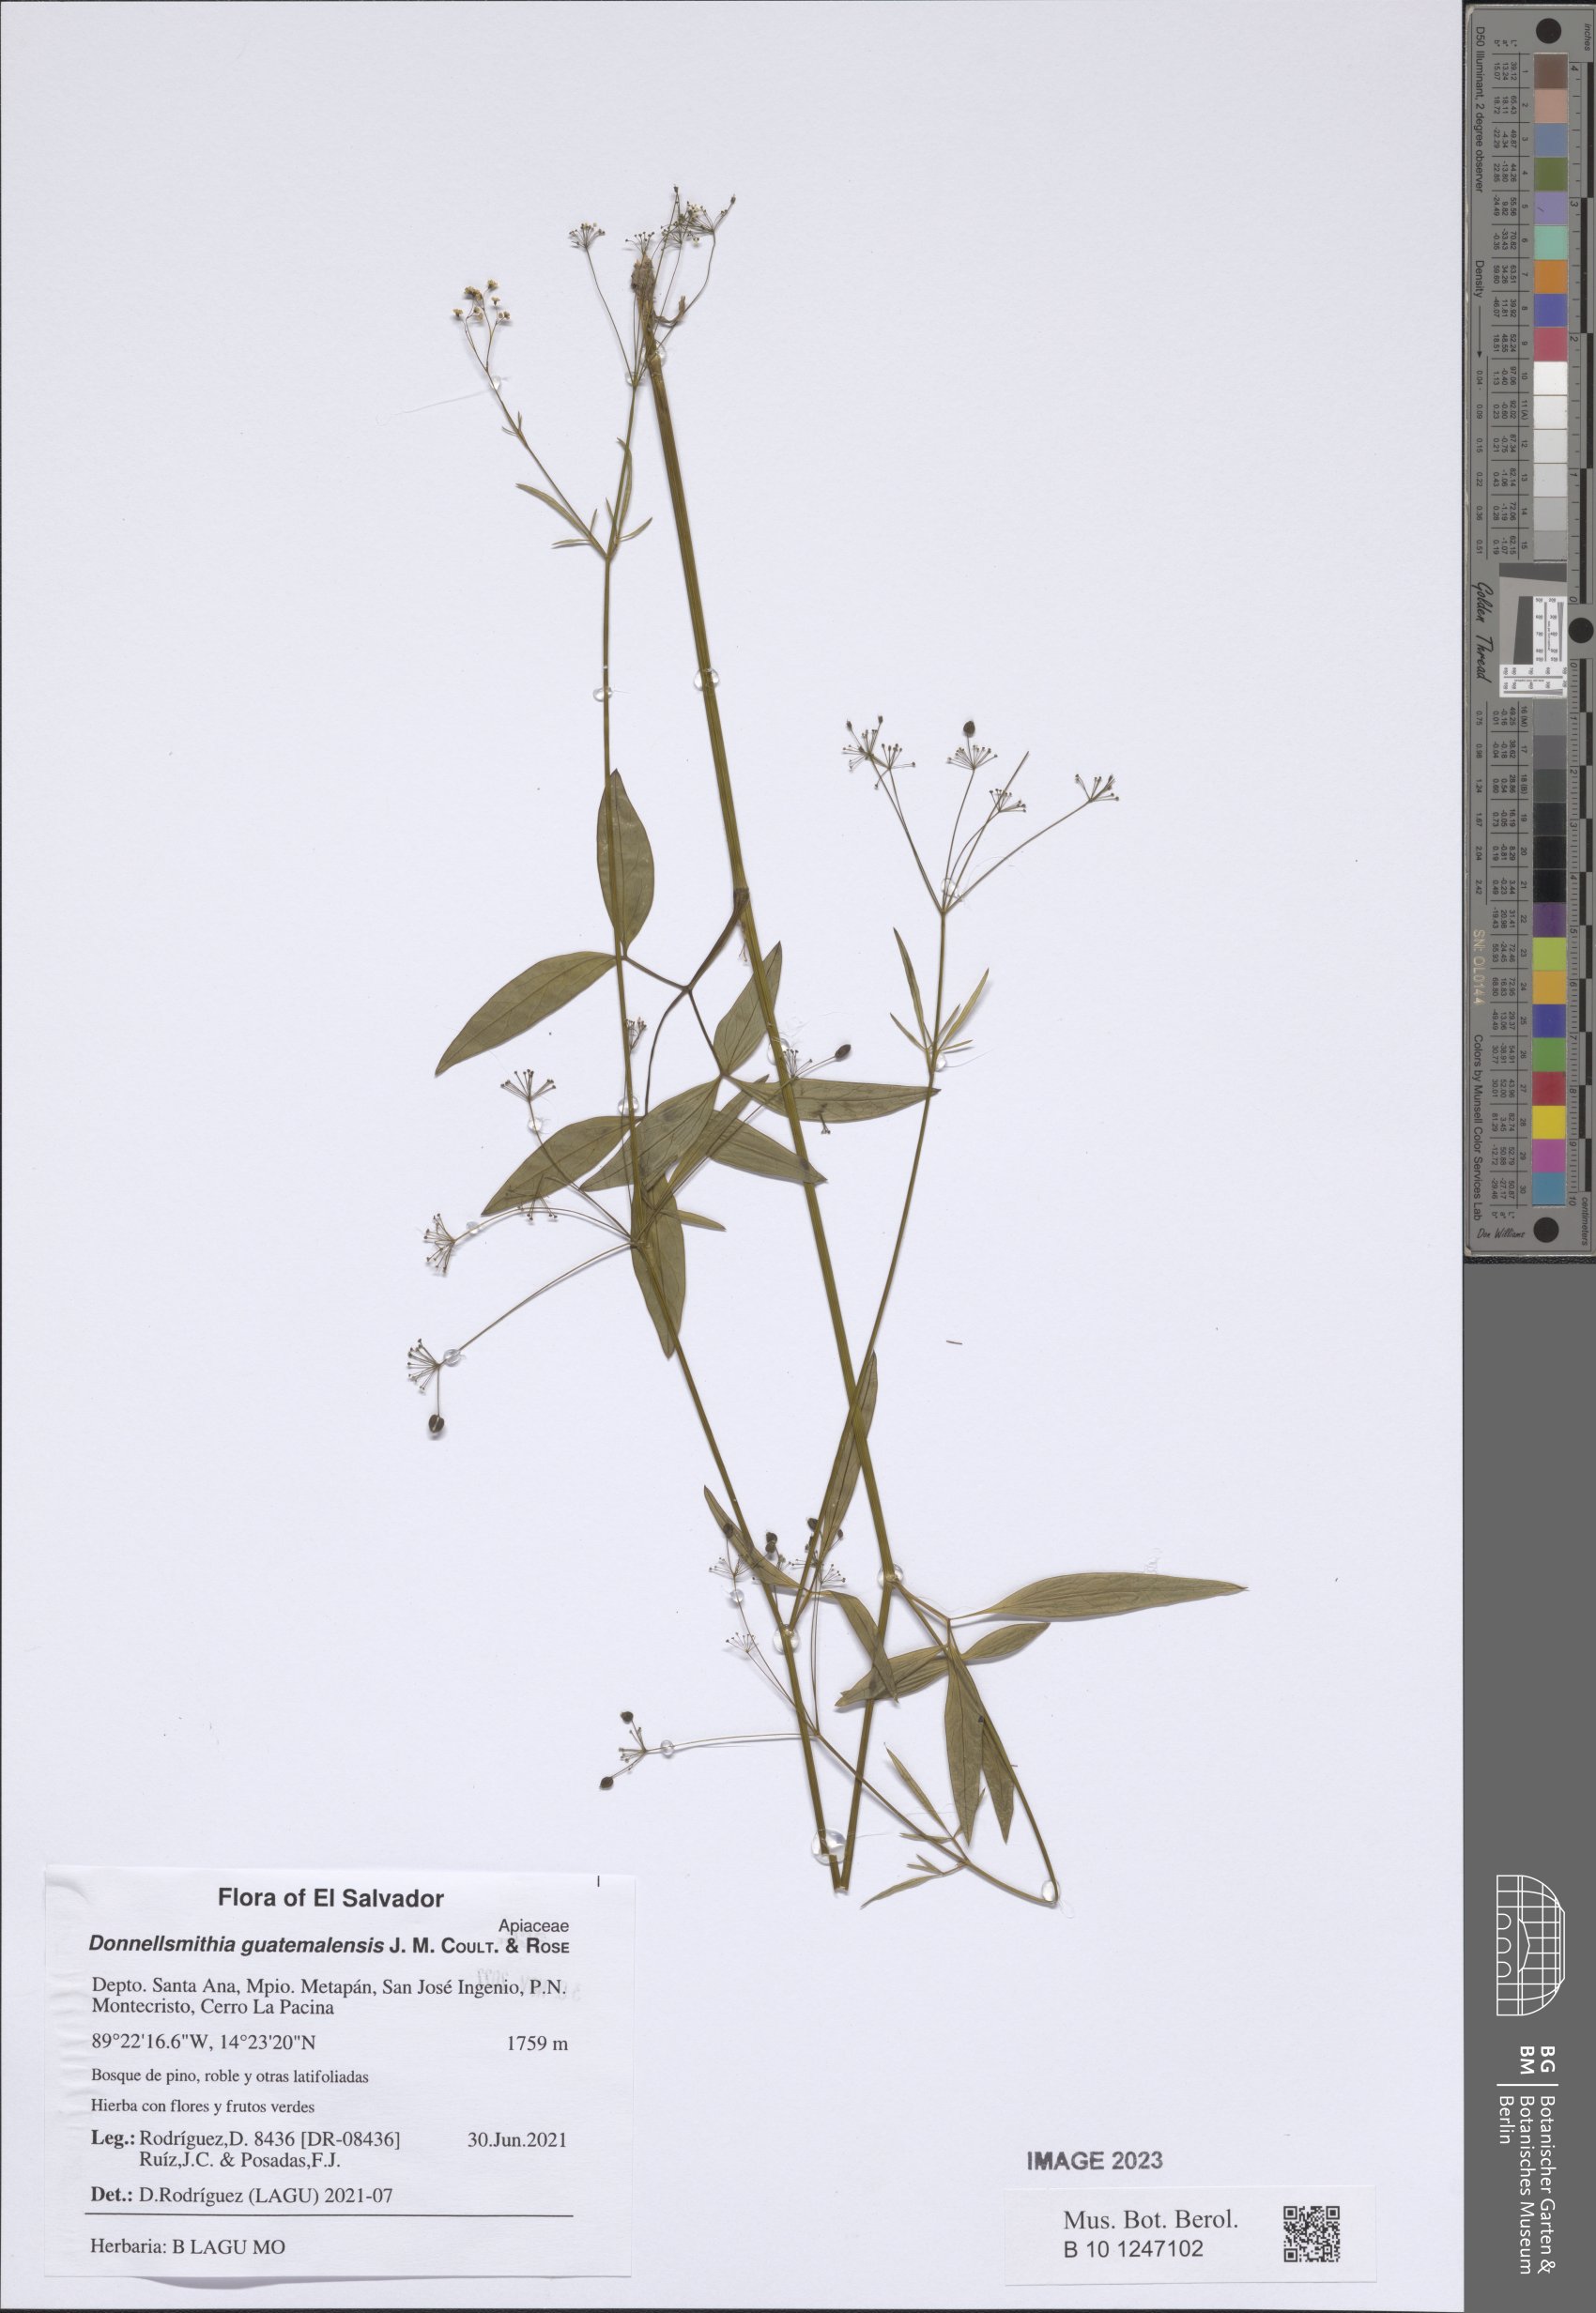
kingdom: Plantae
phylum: Tracheophyta
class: Magnoliopsida
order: Apiales
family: Apiaceae
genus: Donnellsmithia
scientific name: Donnellsmithia guatemalensis
